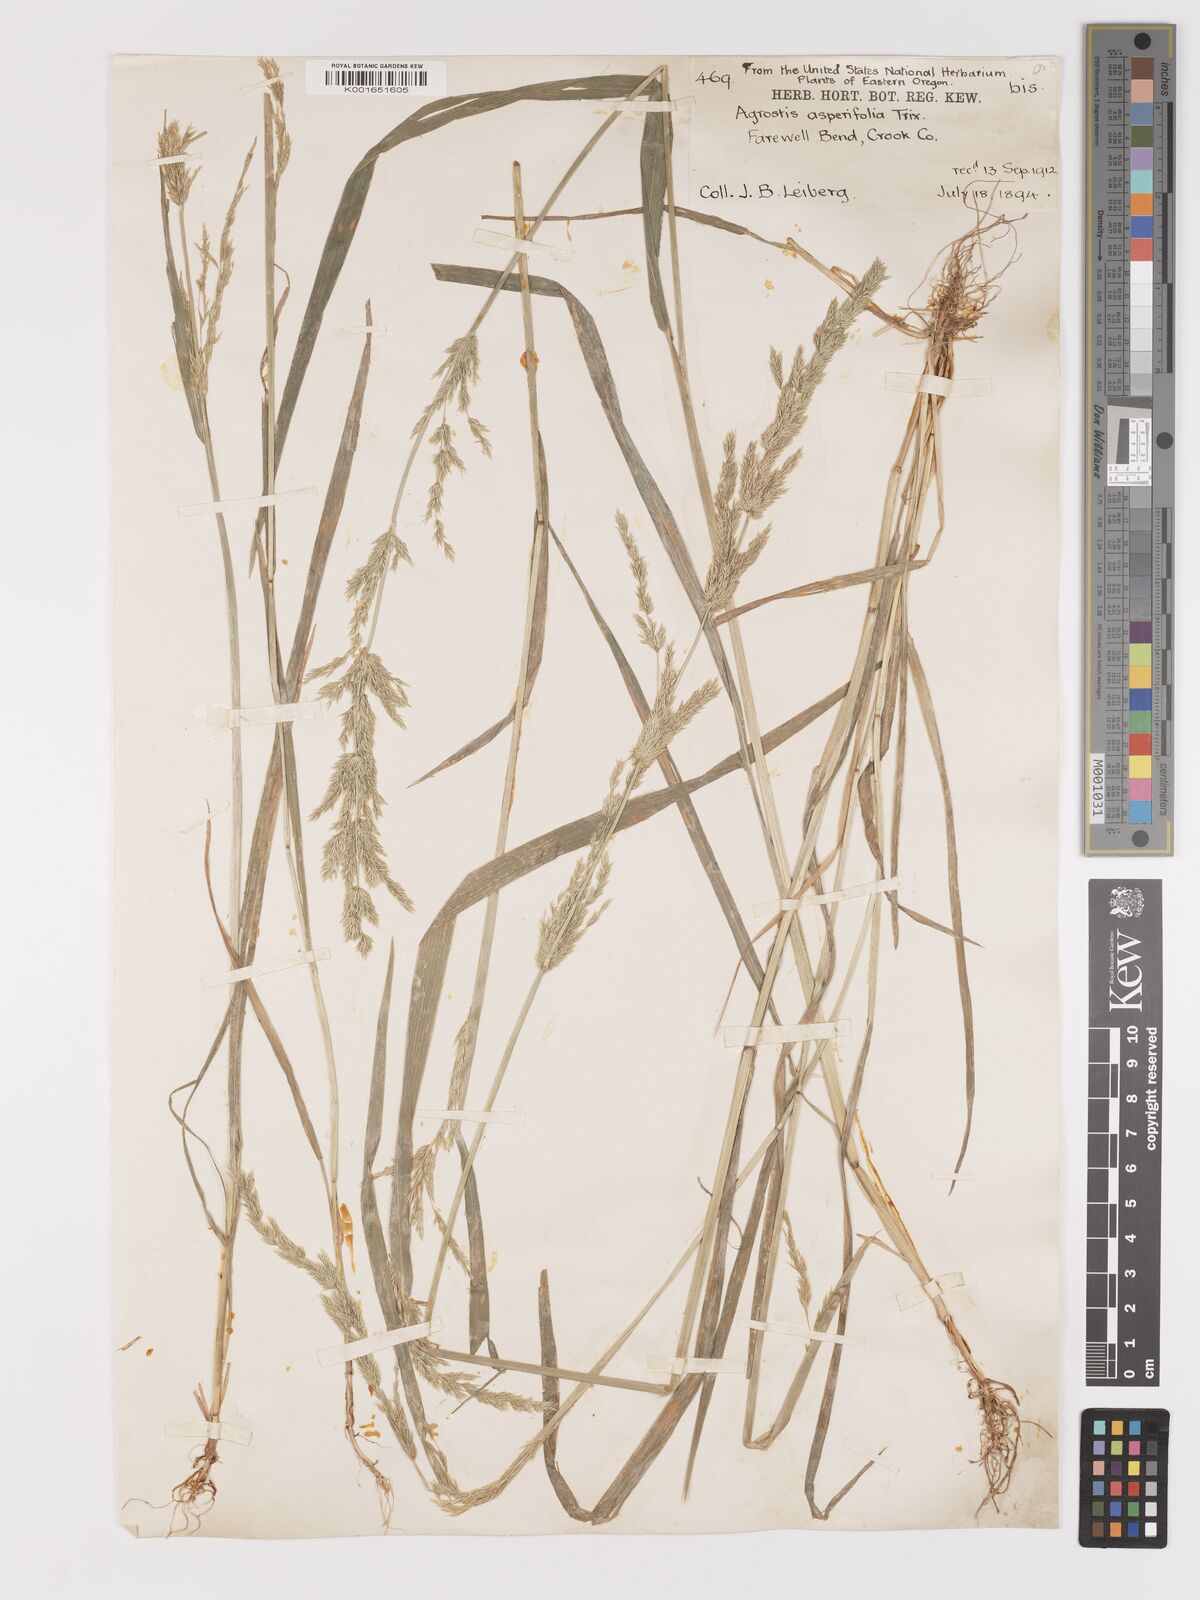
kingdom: Plantae
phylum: Tracheophyta
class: Liliopsida
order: Poales
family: Poaceae
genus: Agrostis
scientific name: Agrostis exarata
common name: Spike bent
